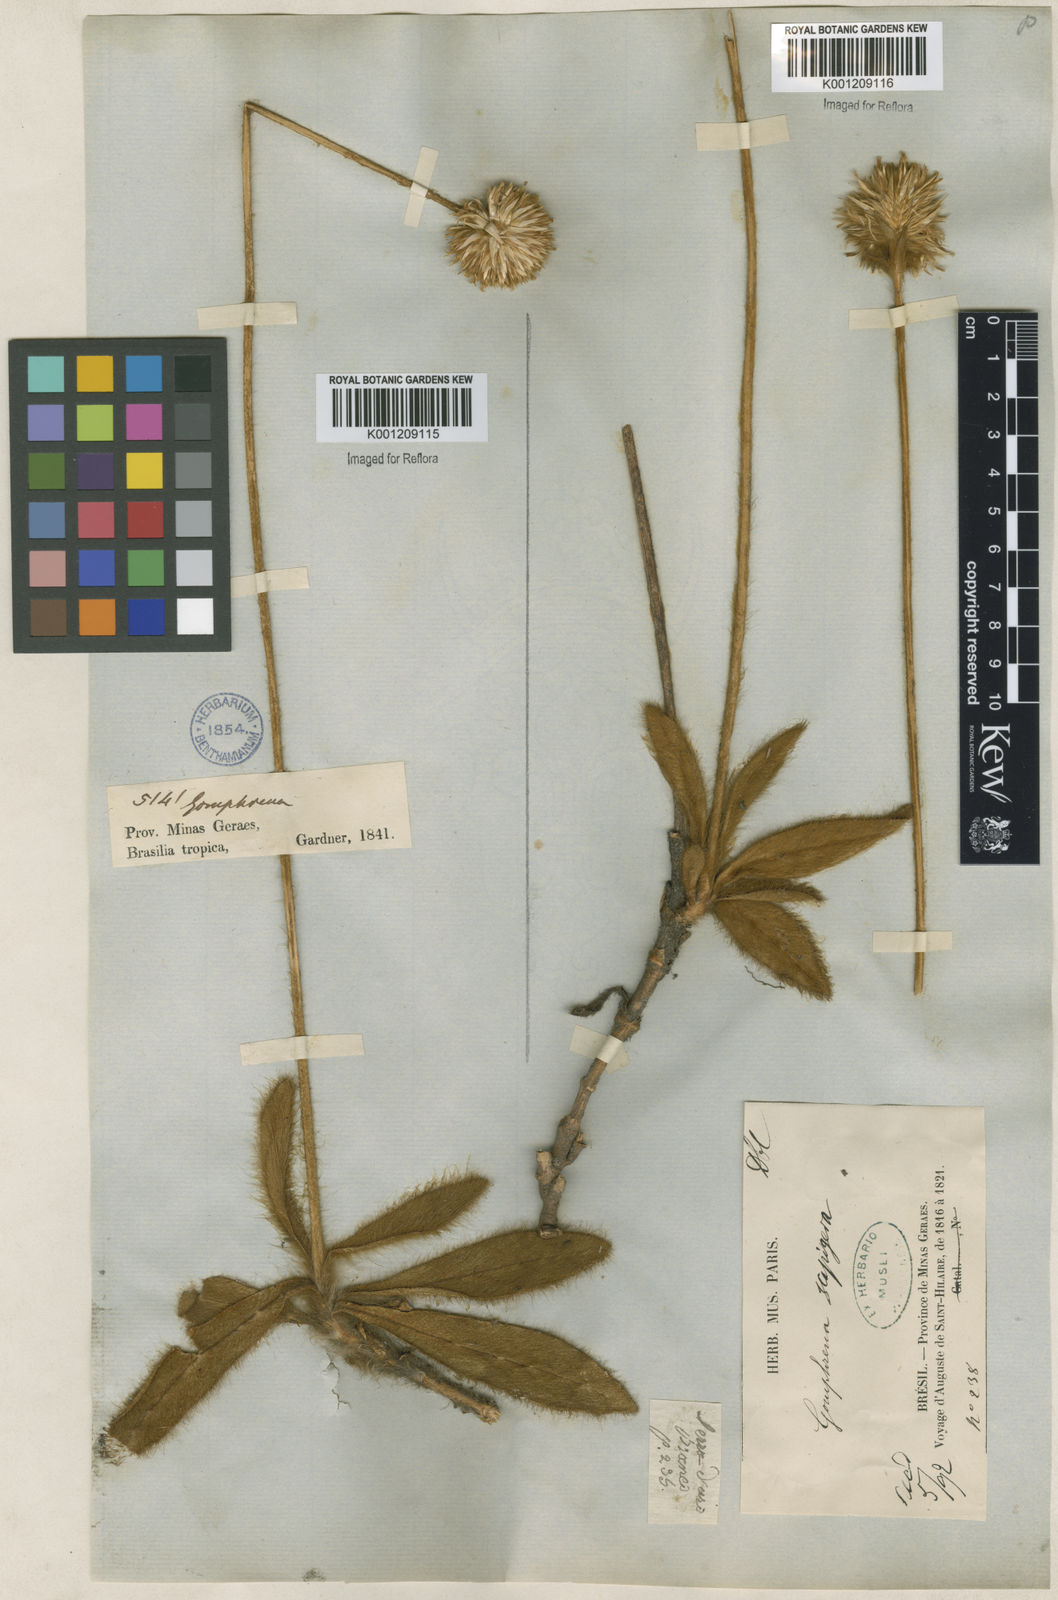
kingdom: Plantae
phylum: Tracheophyta
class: Magnoliopsida
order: Caryophyllales
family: Amaranthaceae
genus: Gomphrena
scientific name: Gomphrena scapigera
